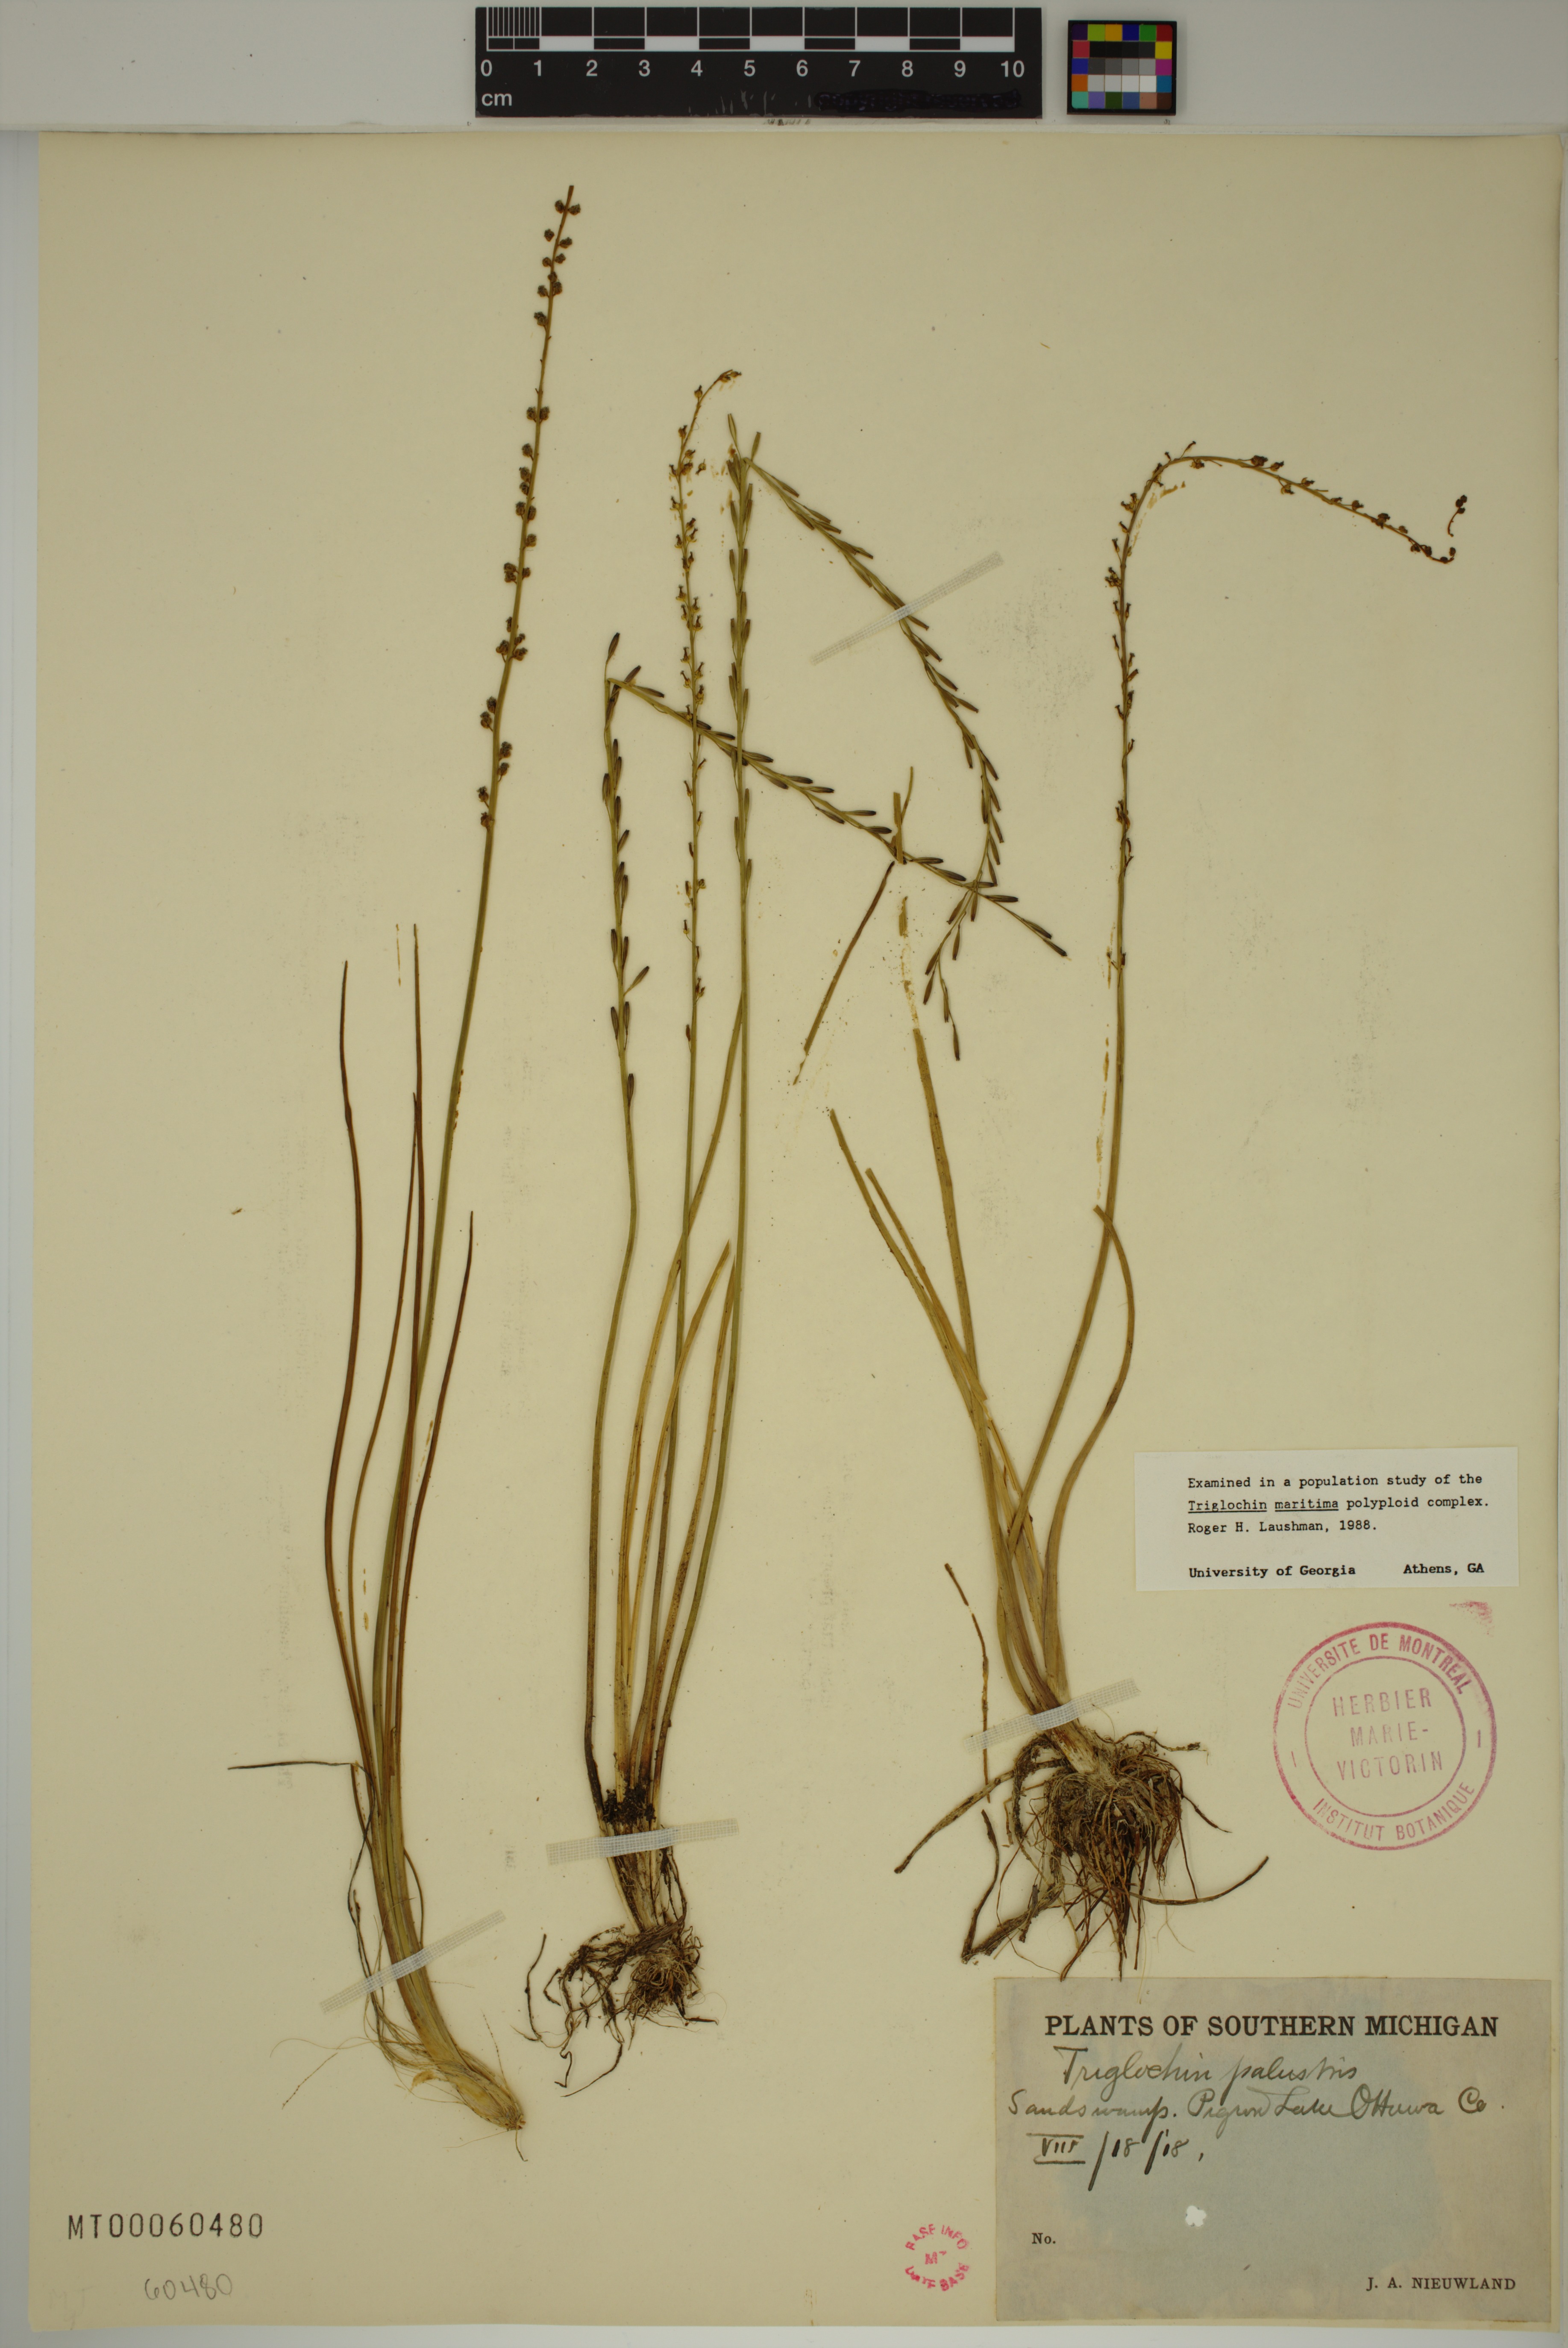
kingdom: Plantae
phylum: Tracheophyta
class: Liliopsida
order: Alismatales
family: Juncaginaceae
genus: Triglochin
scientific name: Triglochin palustris
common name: Marsh arrowgrass
